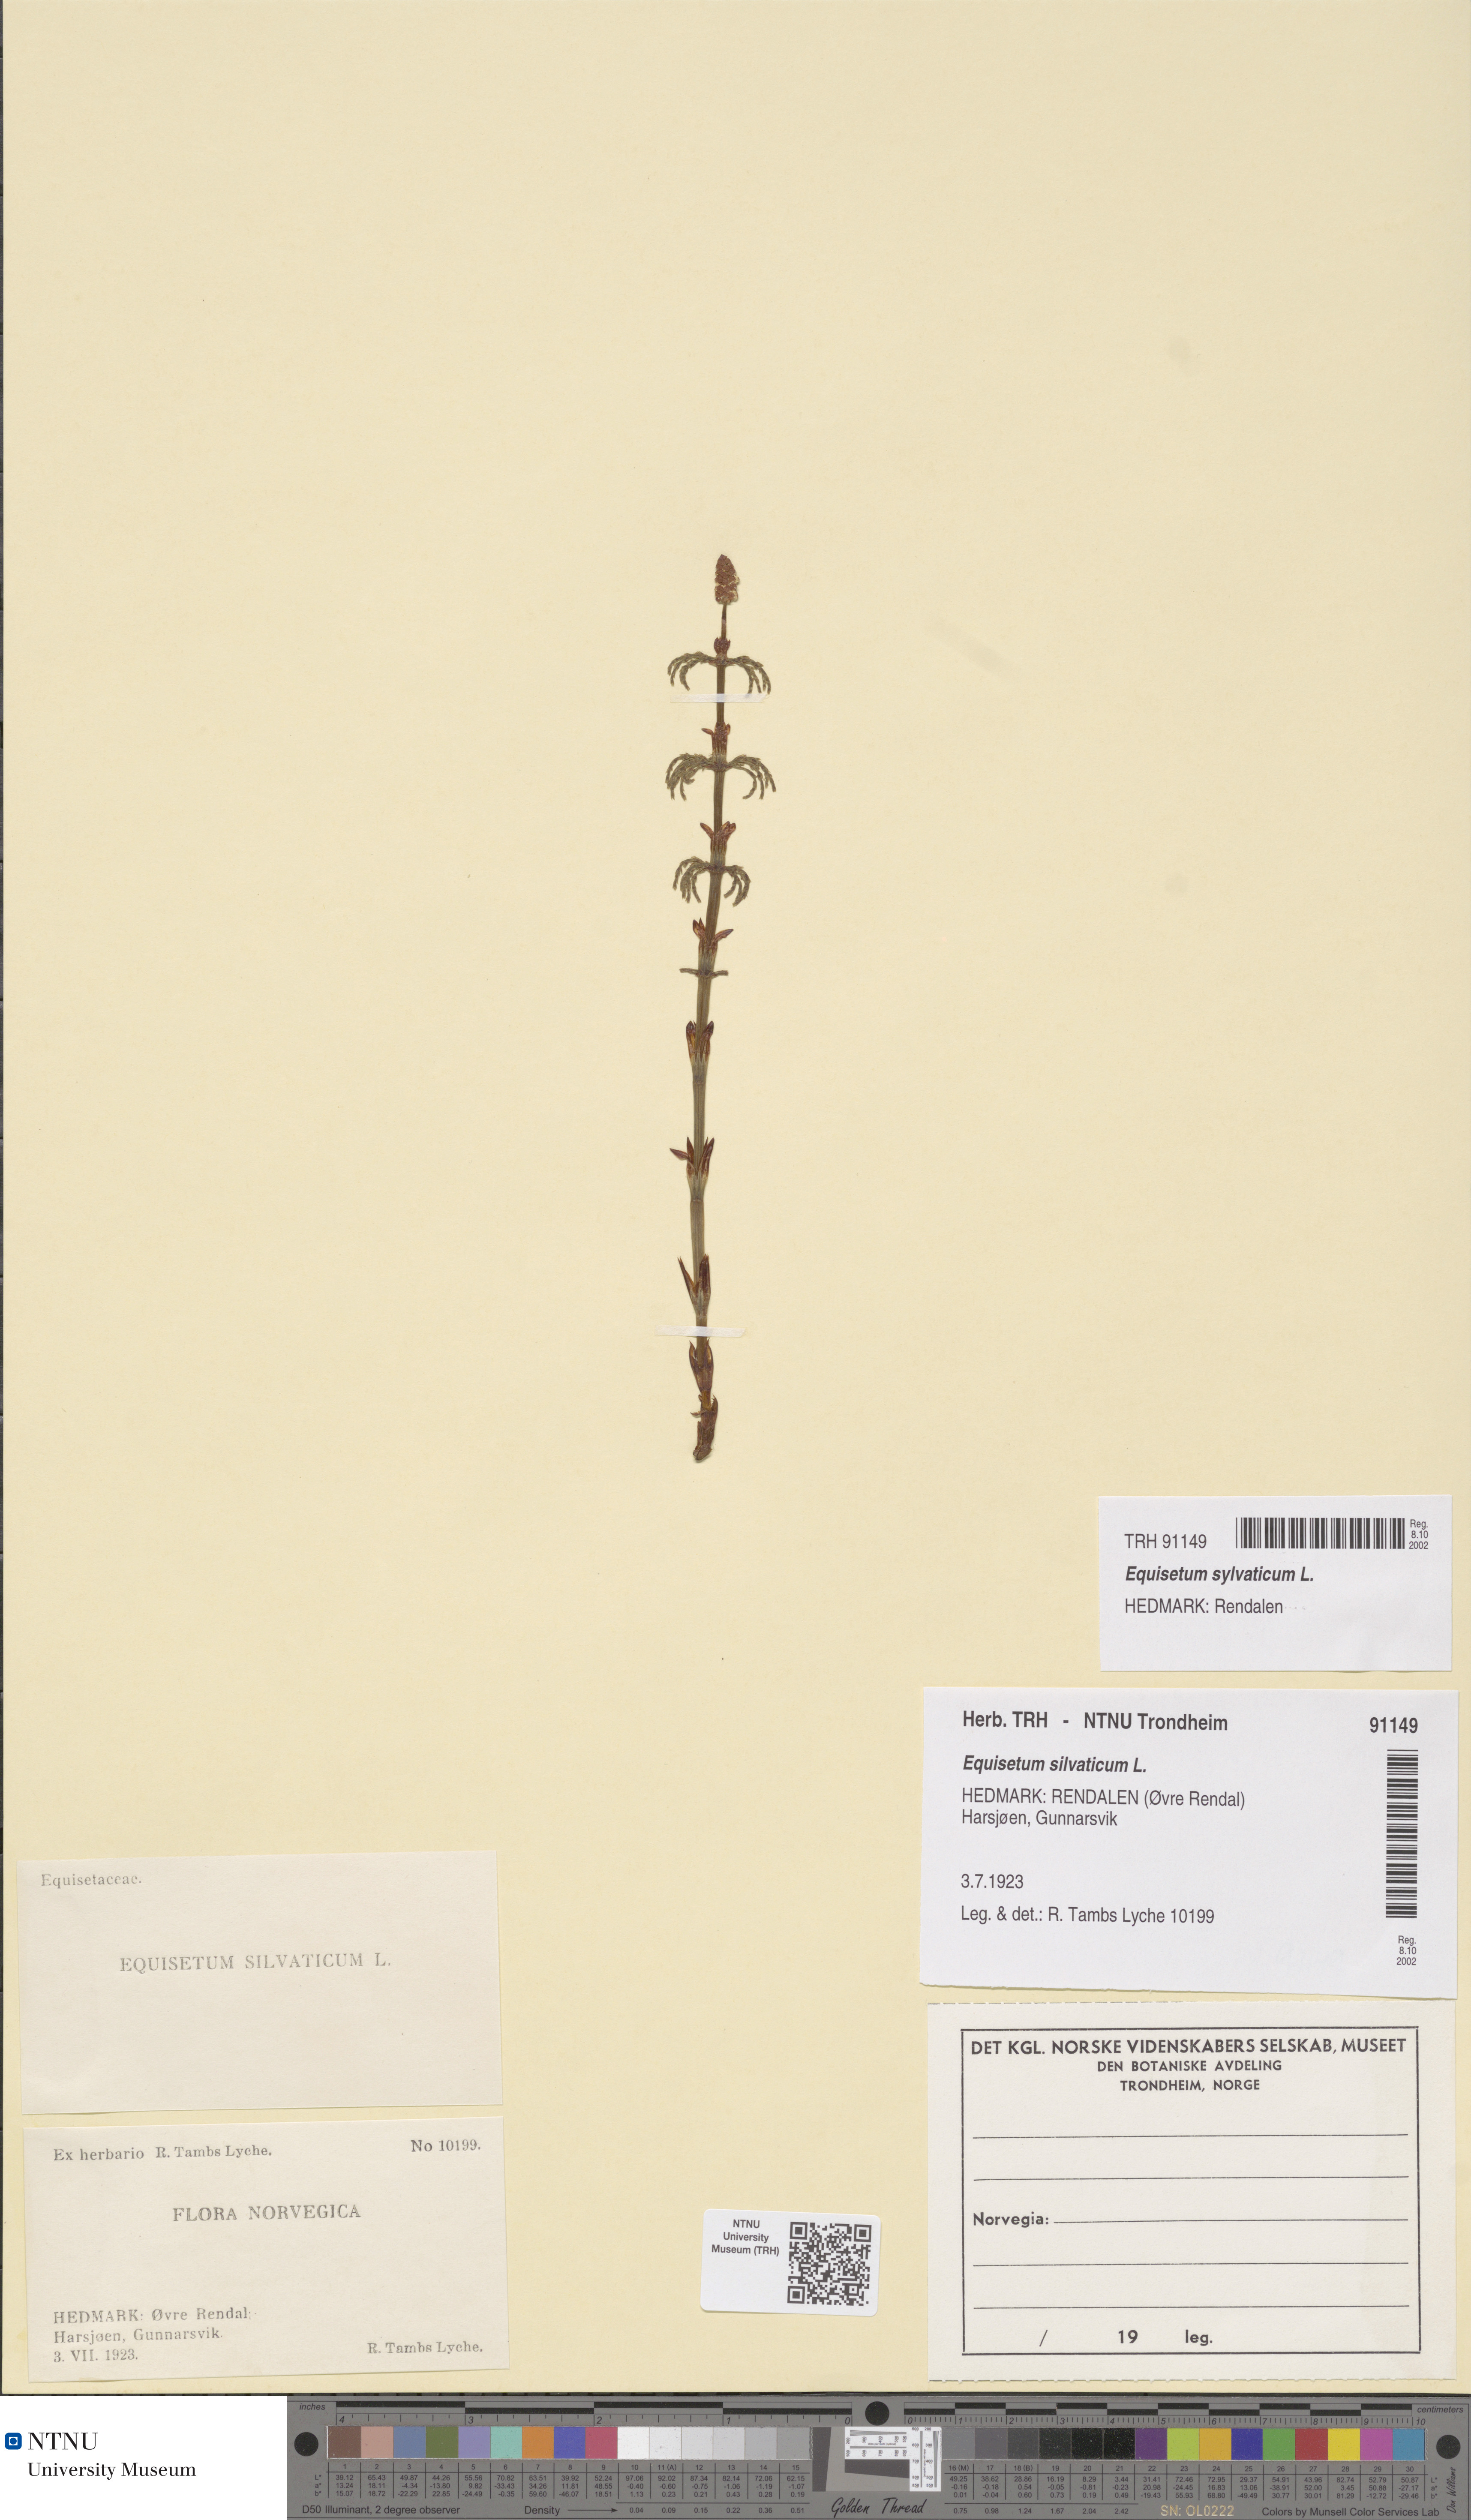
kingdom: Plantae
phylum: Tracheophyta
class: Polypodiopsida
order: Equisetales
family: Equisetaceae
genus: Equisetum
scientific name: Equisetum sylvaticum
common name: Wood horsetail
